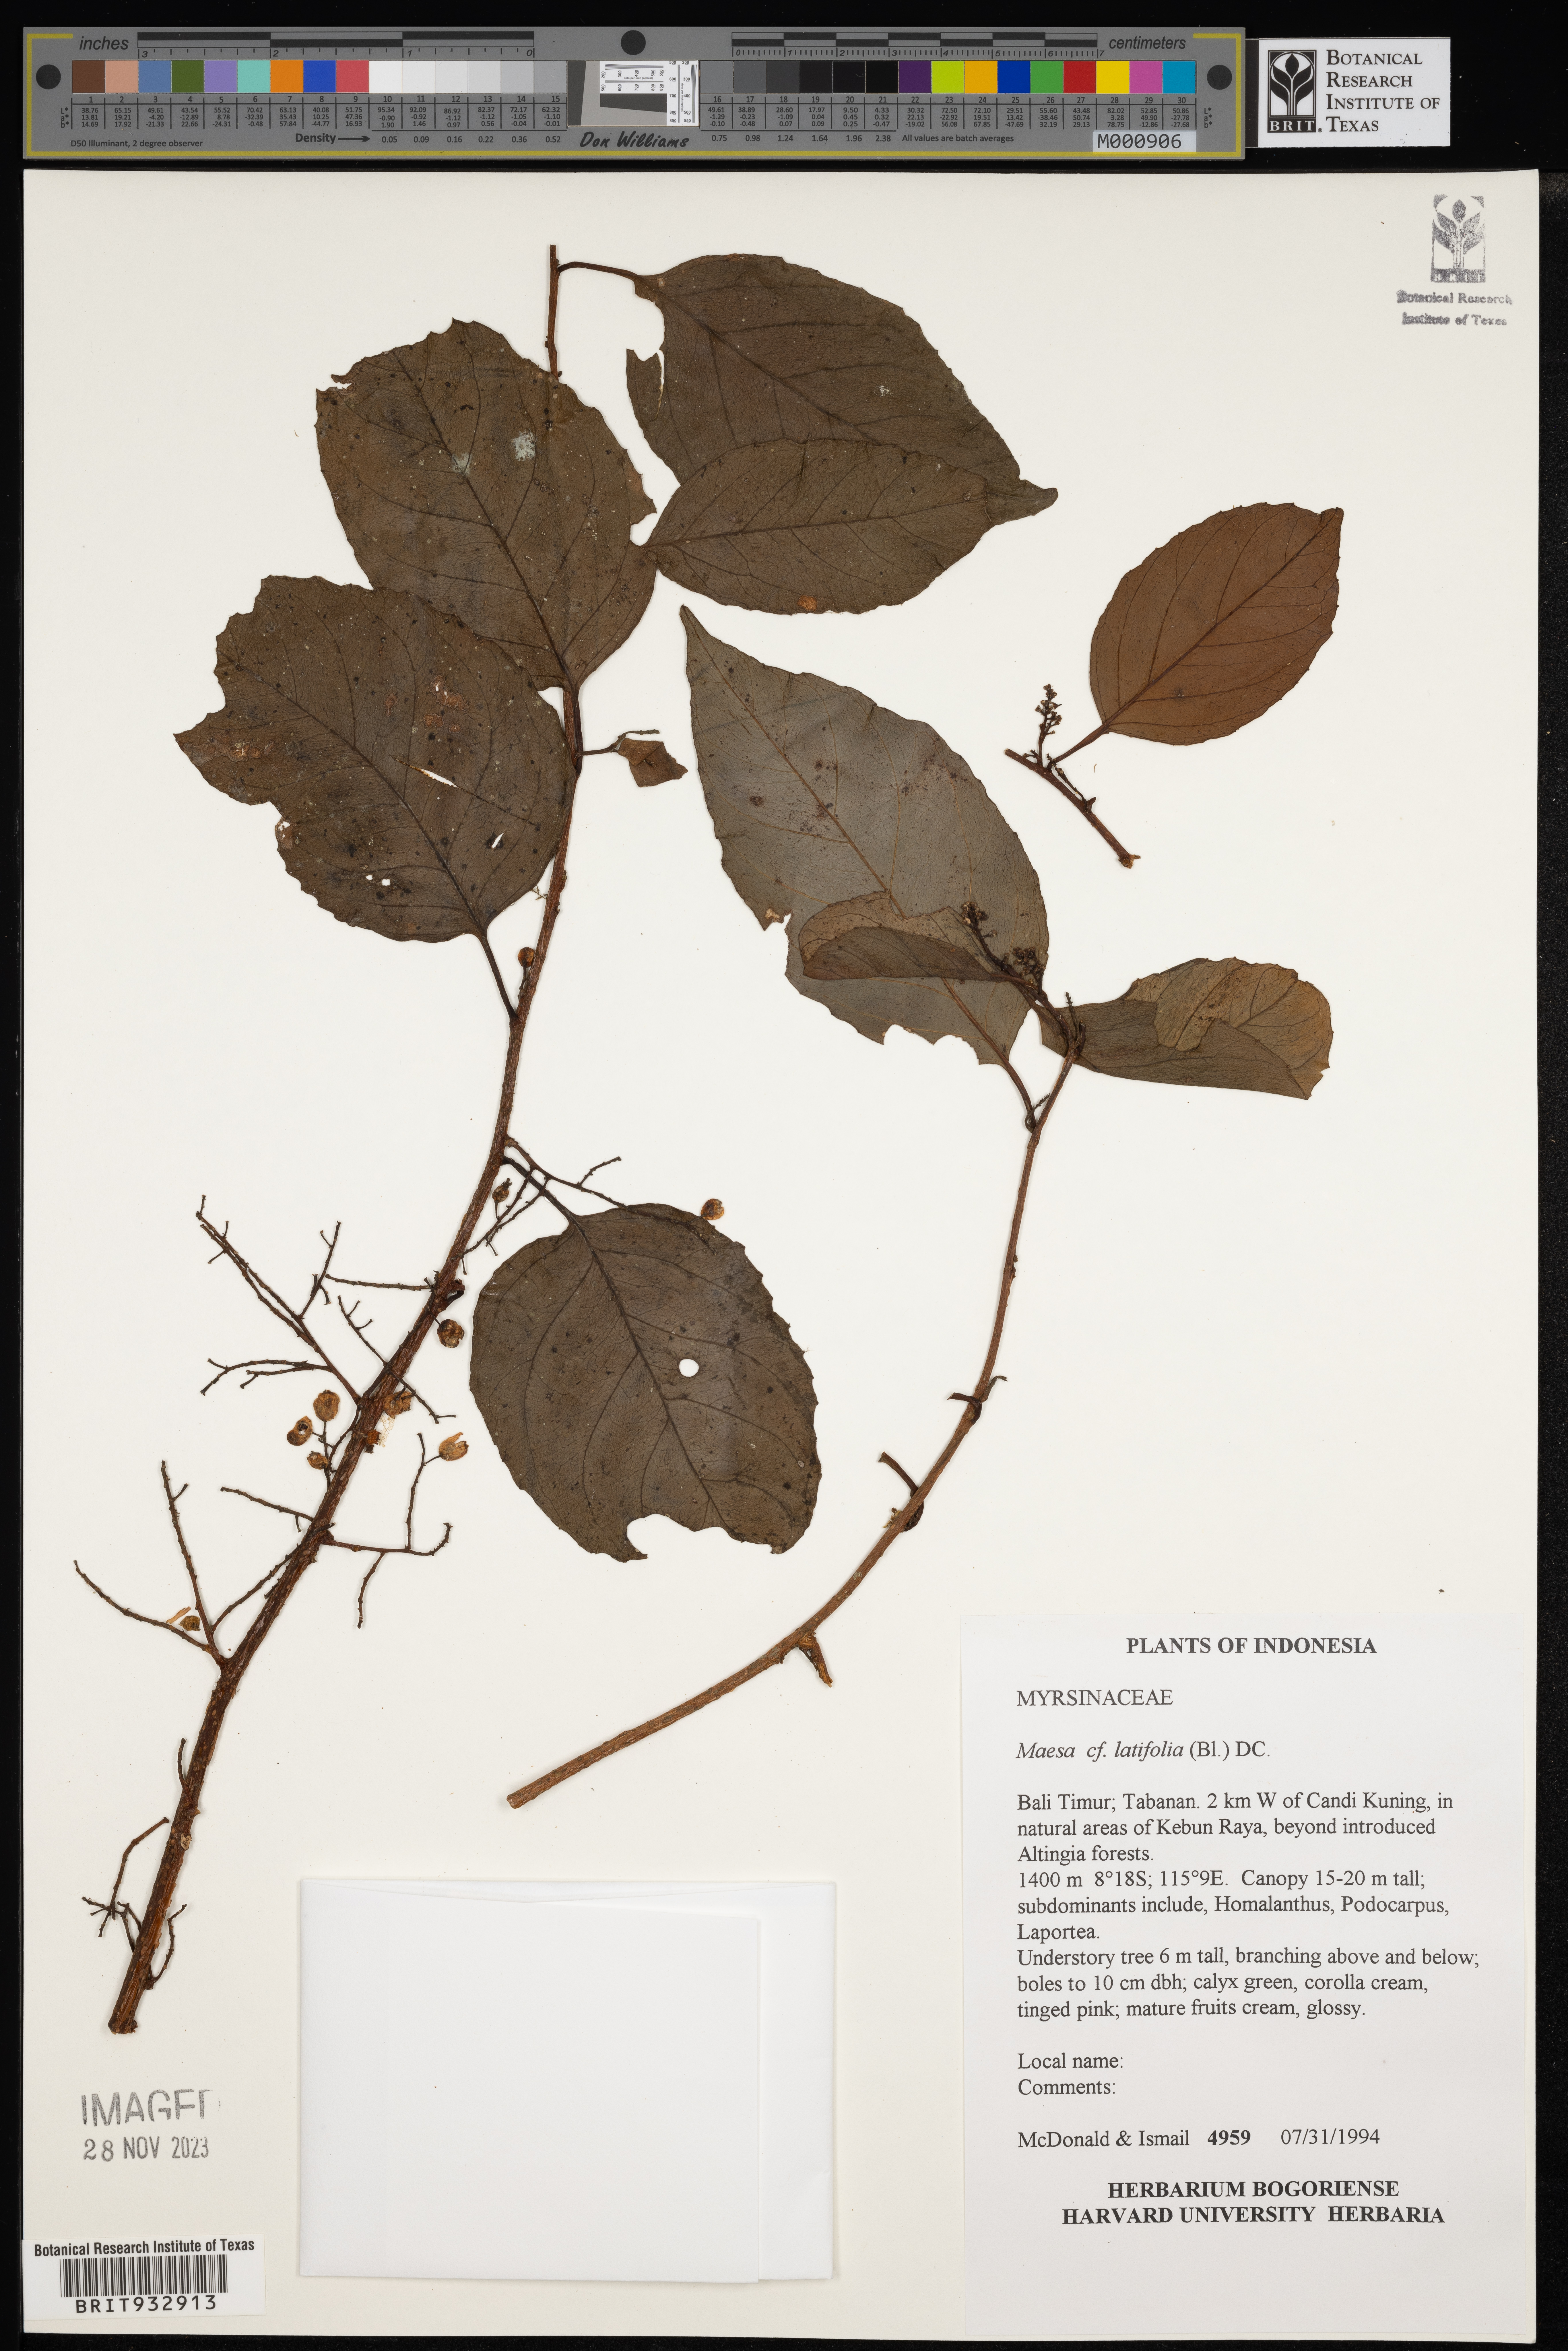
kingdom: Plantae
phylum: Tracheophyta
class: Magnoliopsida
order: Ericales
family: Primulaceae
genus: Maesa
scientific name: Maesa
